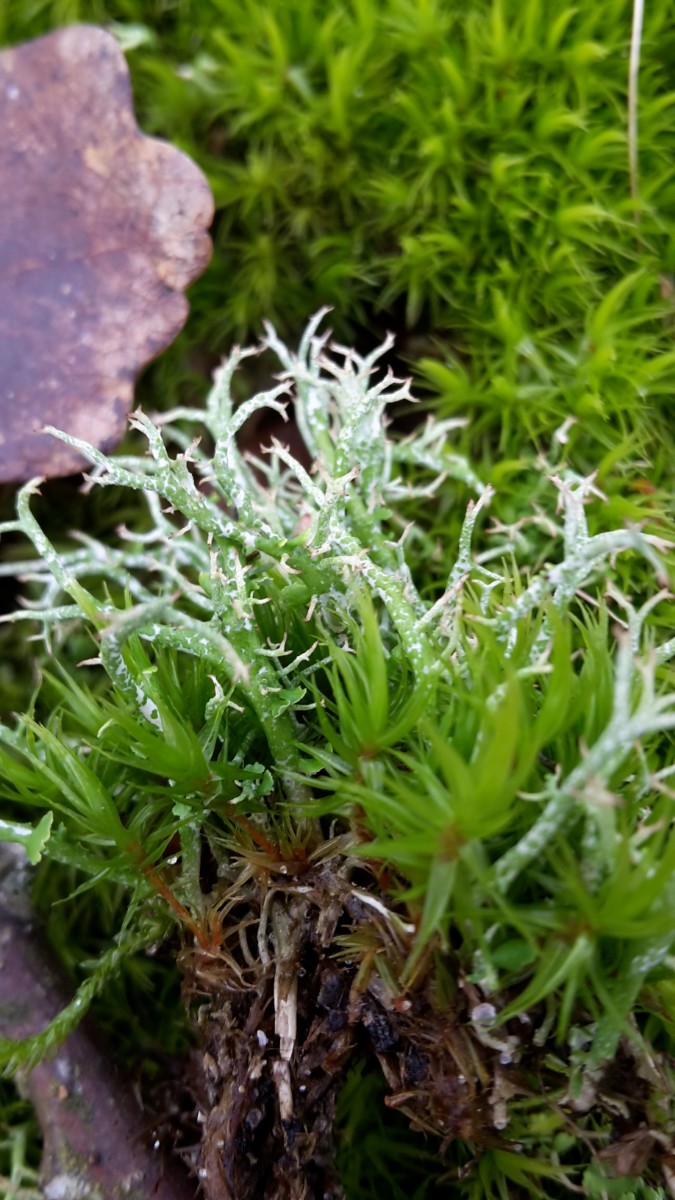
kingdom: Fungi
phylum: Ascomycota
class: Lecanoromycetes
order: Lecanorales
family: Cladoniaceae
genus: Cladonia
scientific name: Cladonia rangiformis
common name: spættet bægerlav
